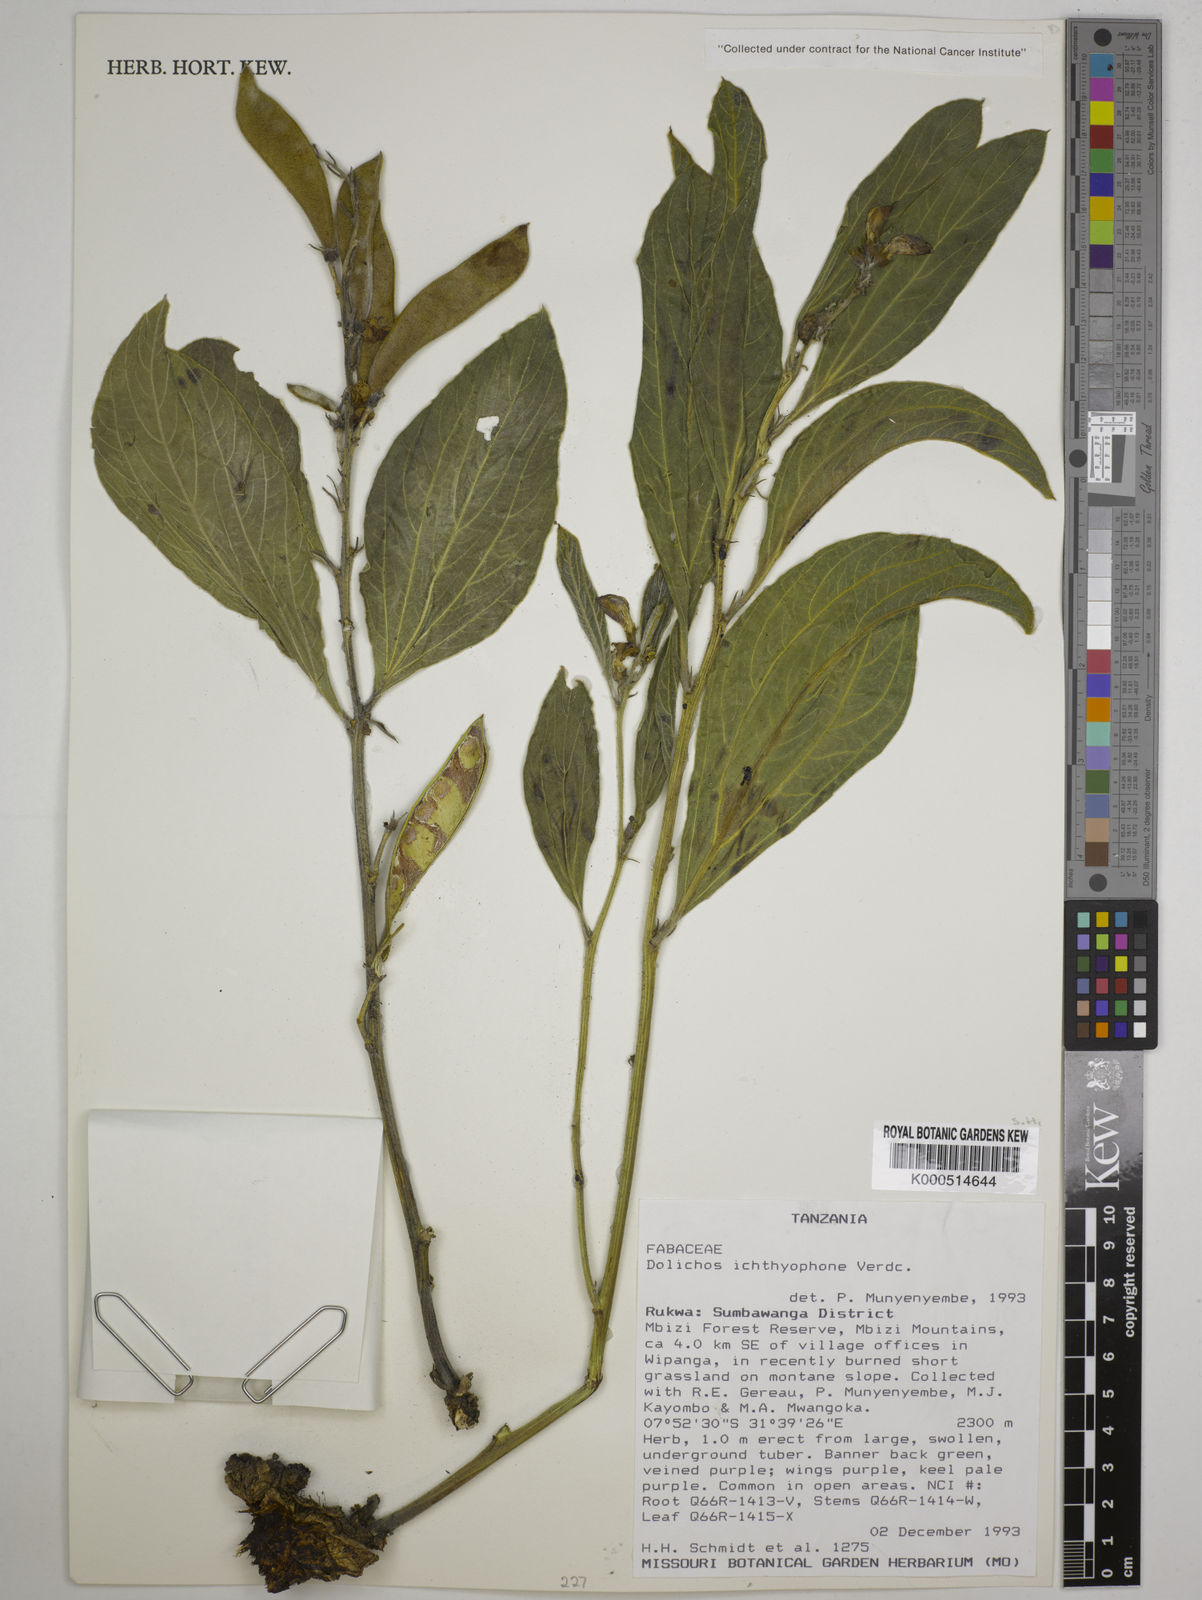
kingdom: Plantae
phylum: Tracheophyta
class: Magnoliopsida
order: Fabales
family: Fabaceae
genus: Dolichos
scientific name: Dolichos ichthyophone
